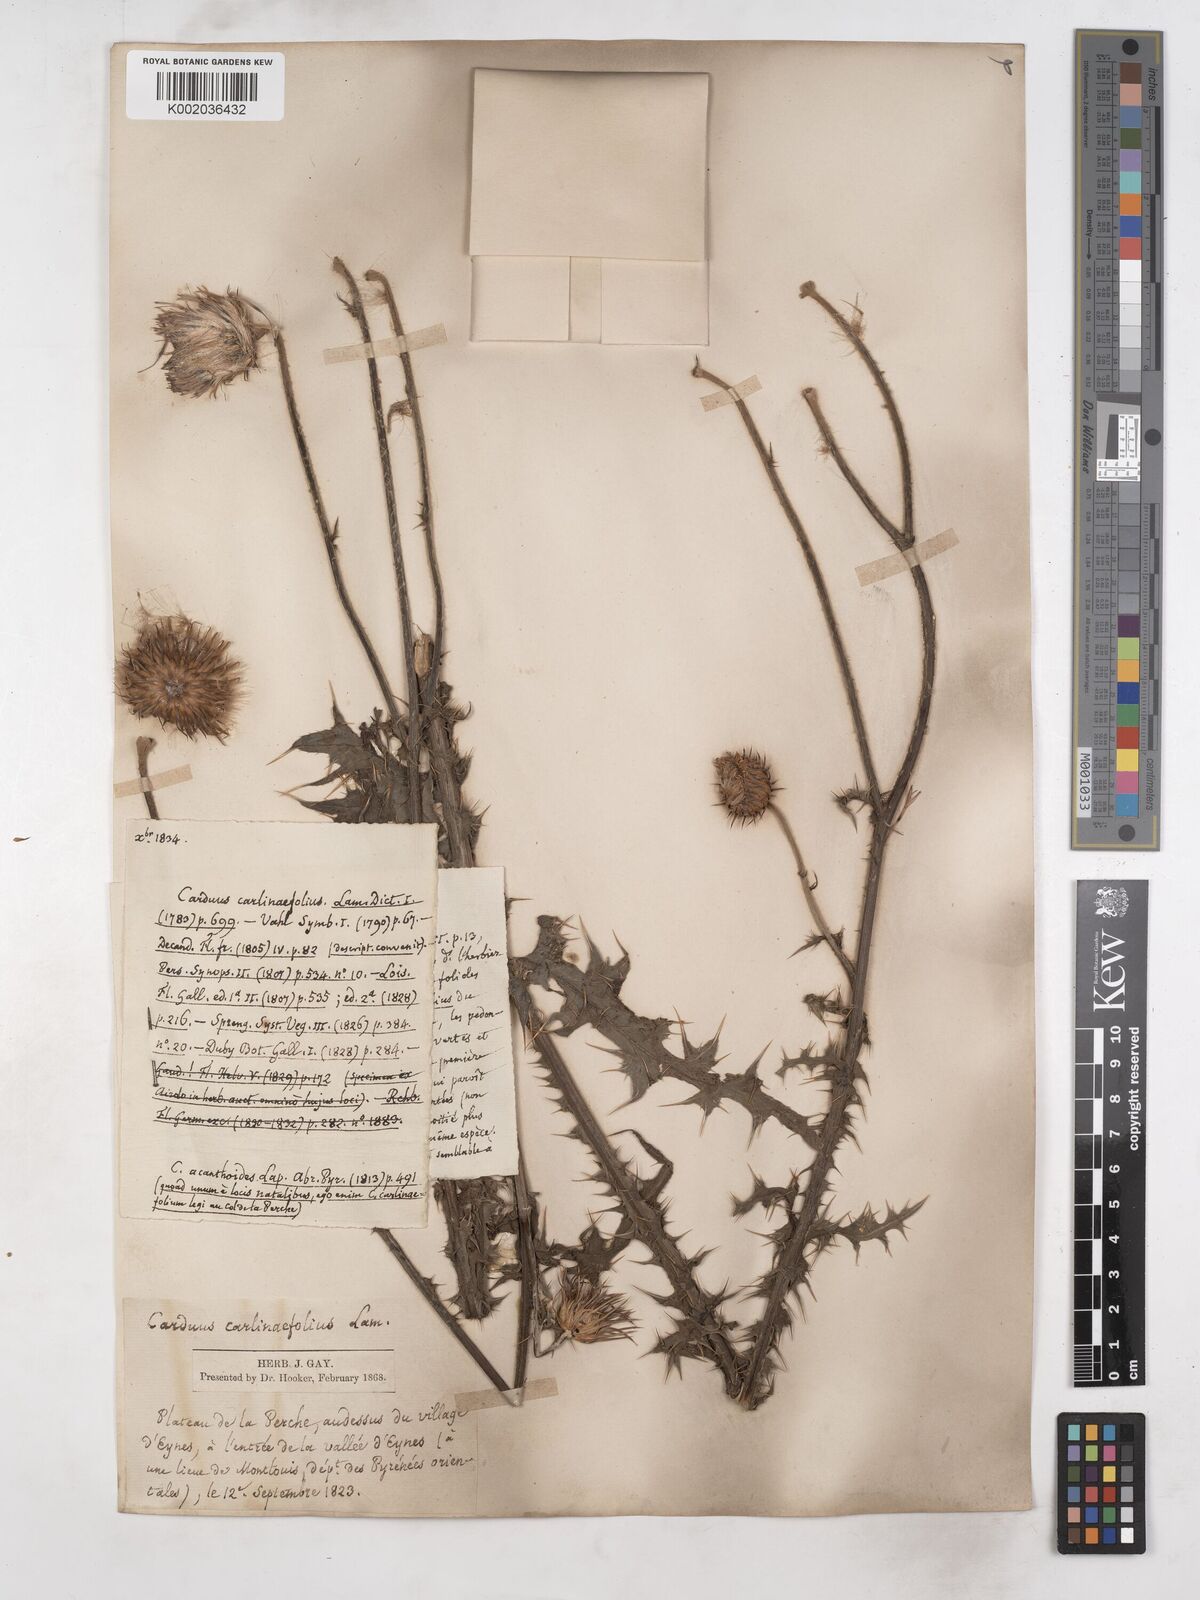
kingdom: Plantae
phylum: Tracheophyta
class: Magnoliopsida
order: Asterales
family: Asteraceae
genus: Carduus
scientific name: Carduus carlinifolius
